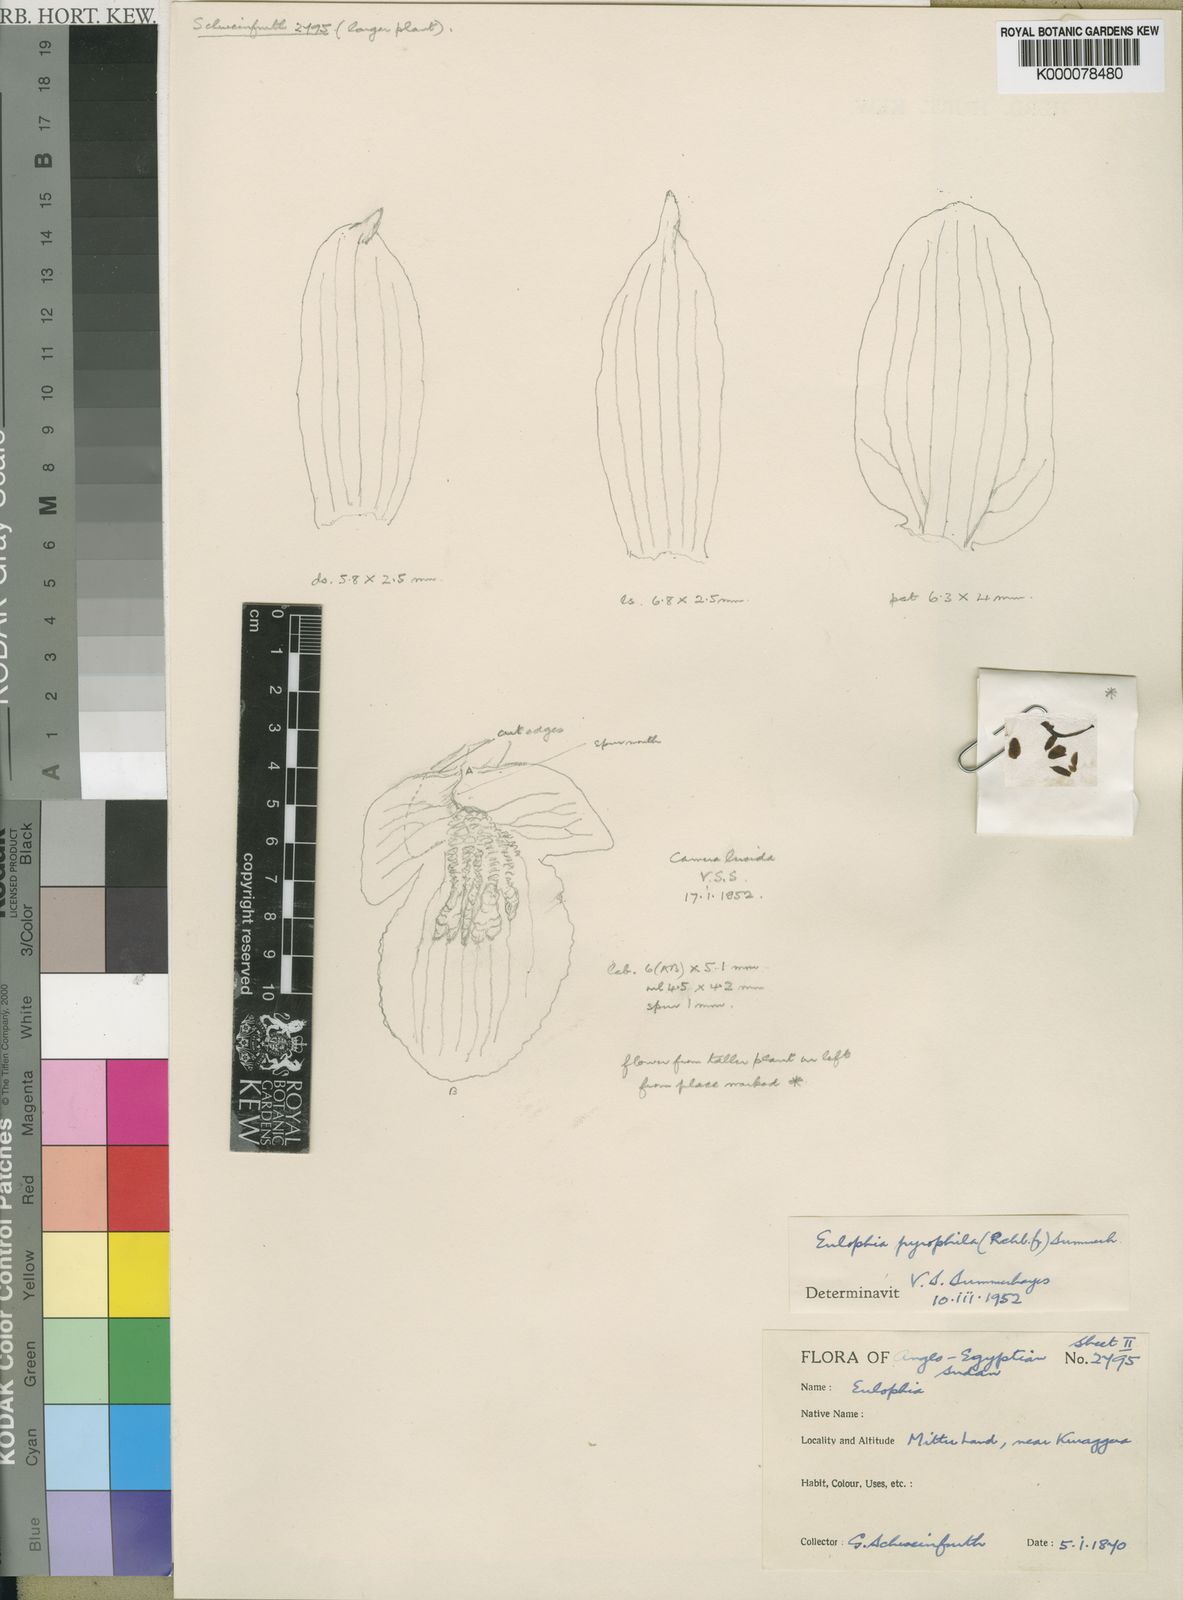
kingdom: Plantae
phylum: Tracheophyta
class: Liliopsida
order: Asparagales
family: Orchidaceae
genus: Eulophia
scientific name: Eulophia pyrophila
